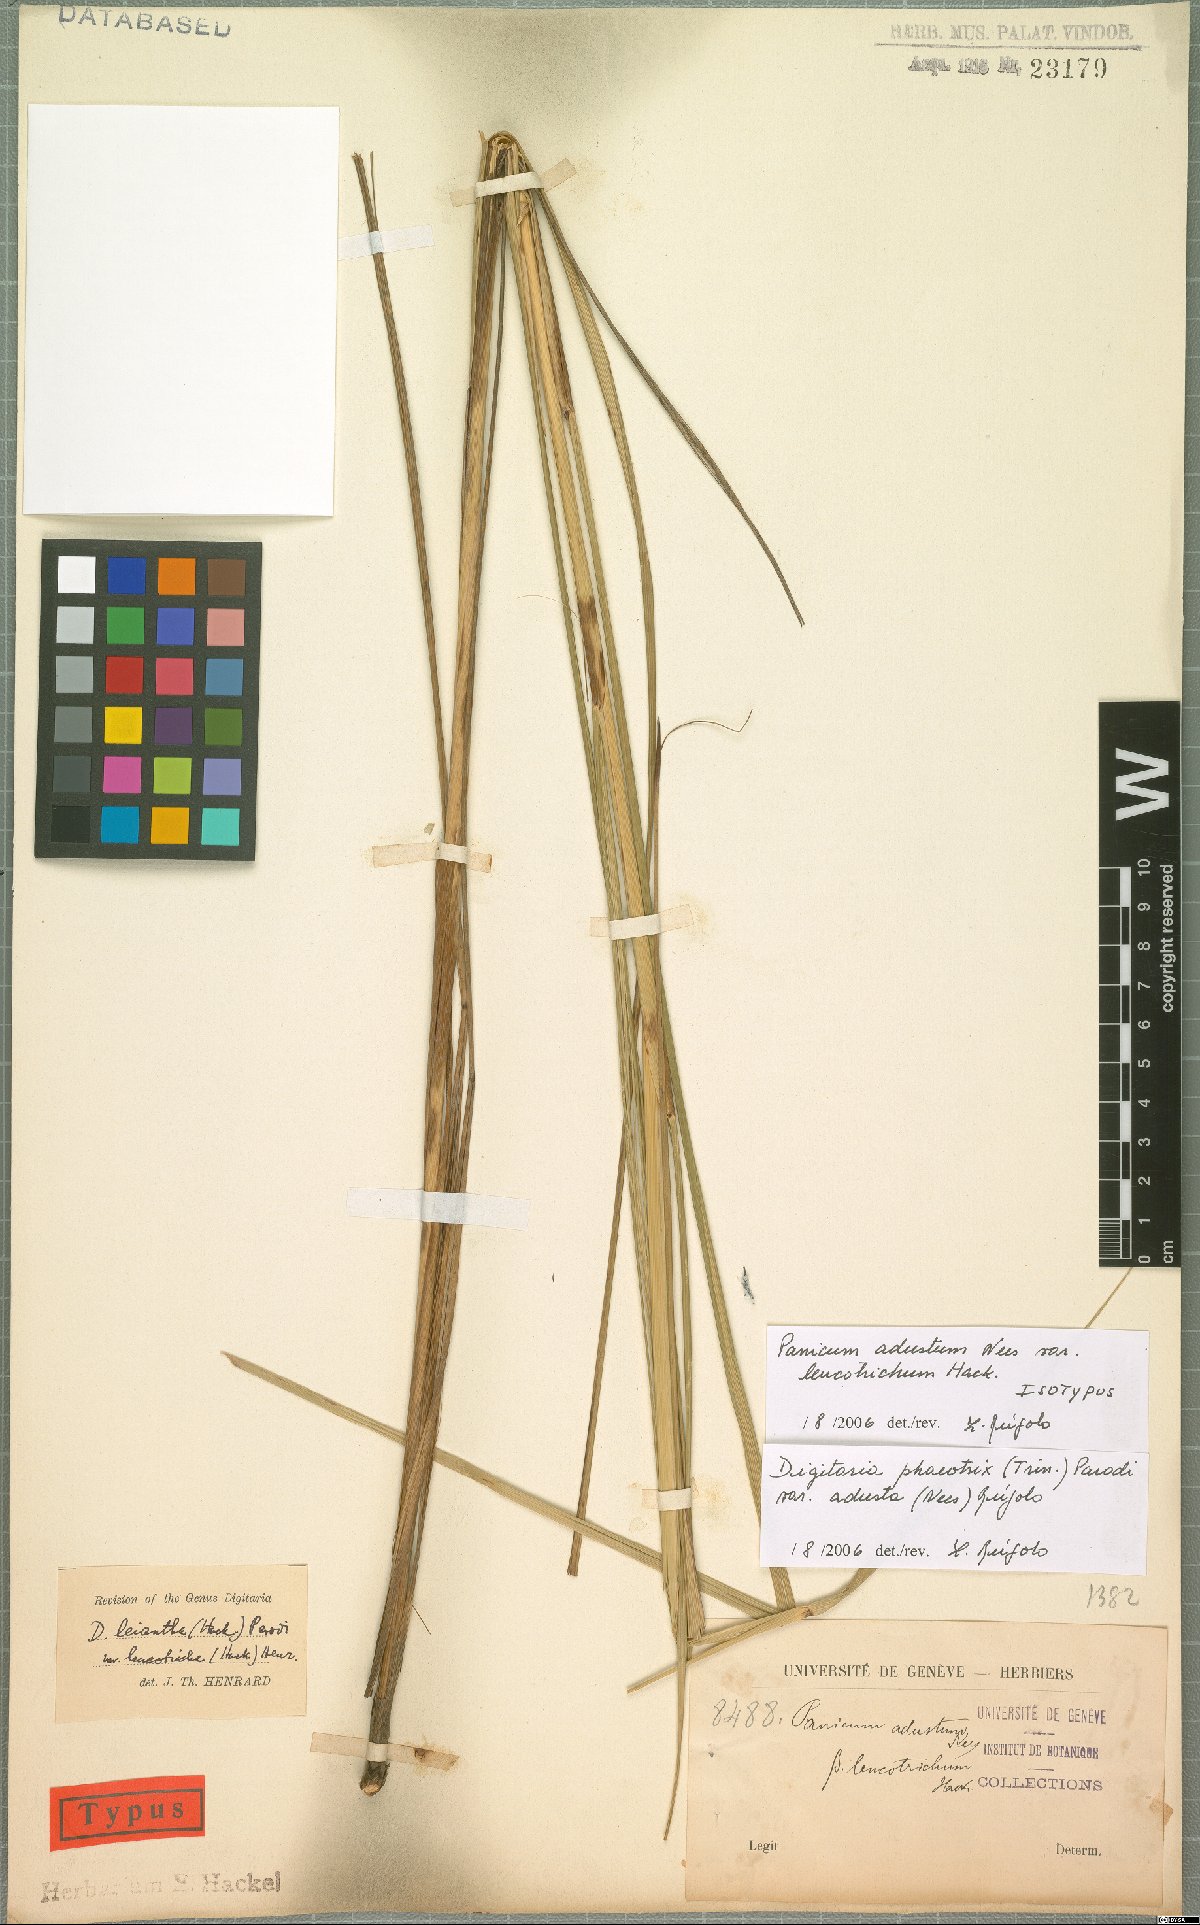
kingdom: Plantae
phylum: Tracheophyta
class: Liliopsida
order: Poales
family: Poaceae
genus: Digitaria
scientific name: Digitaria phaeothrix
